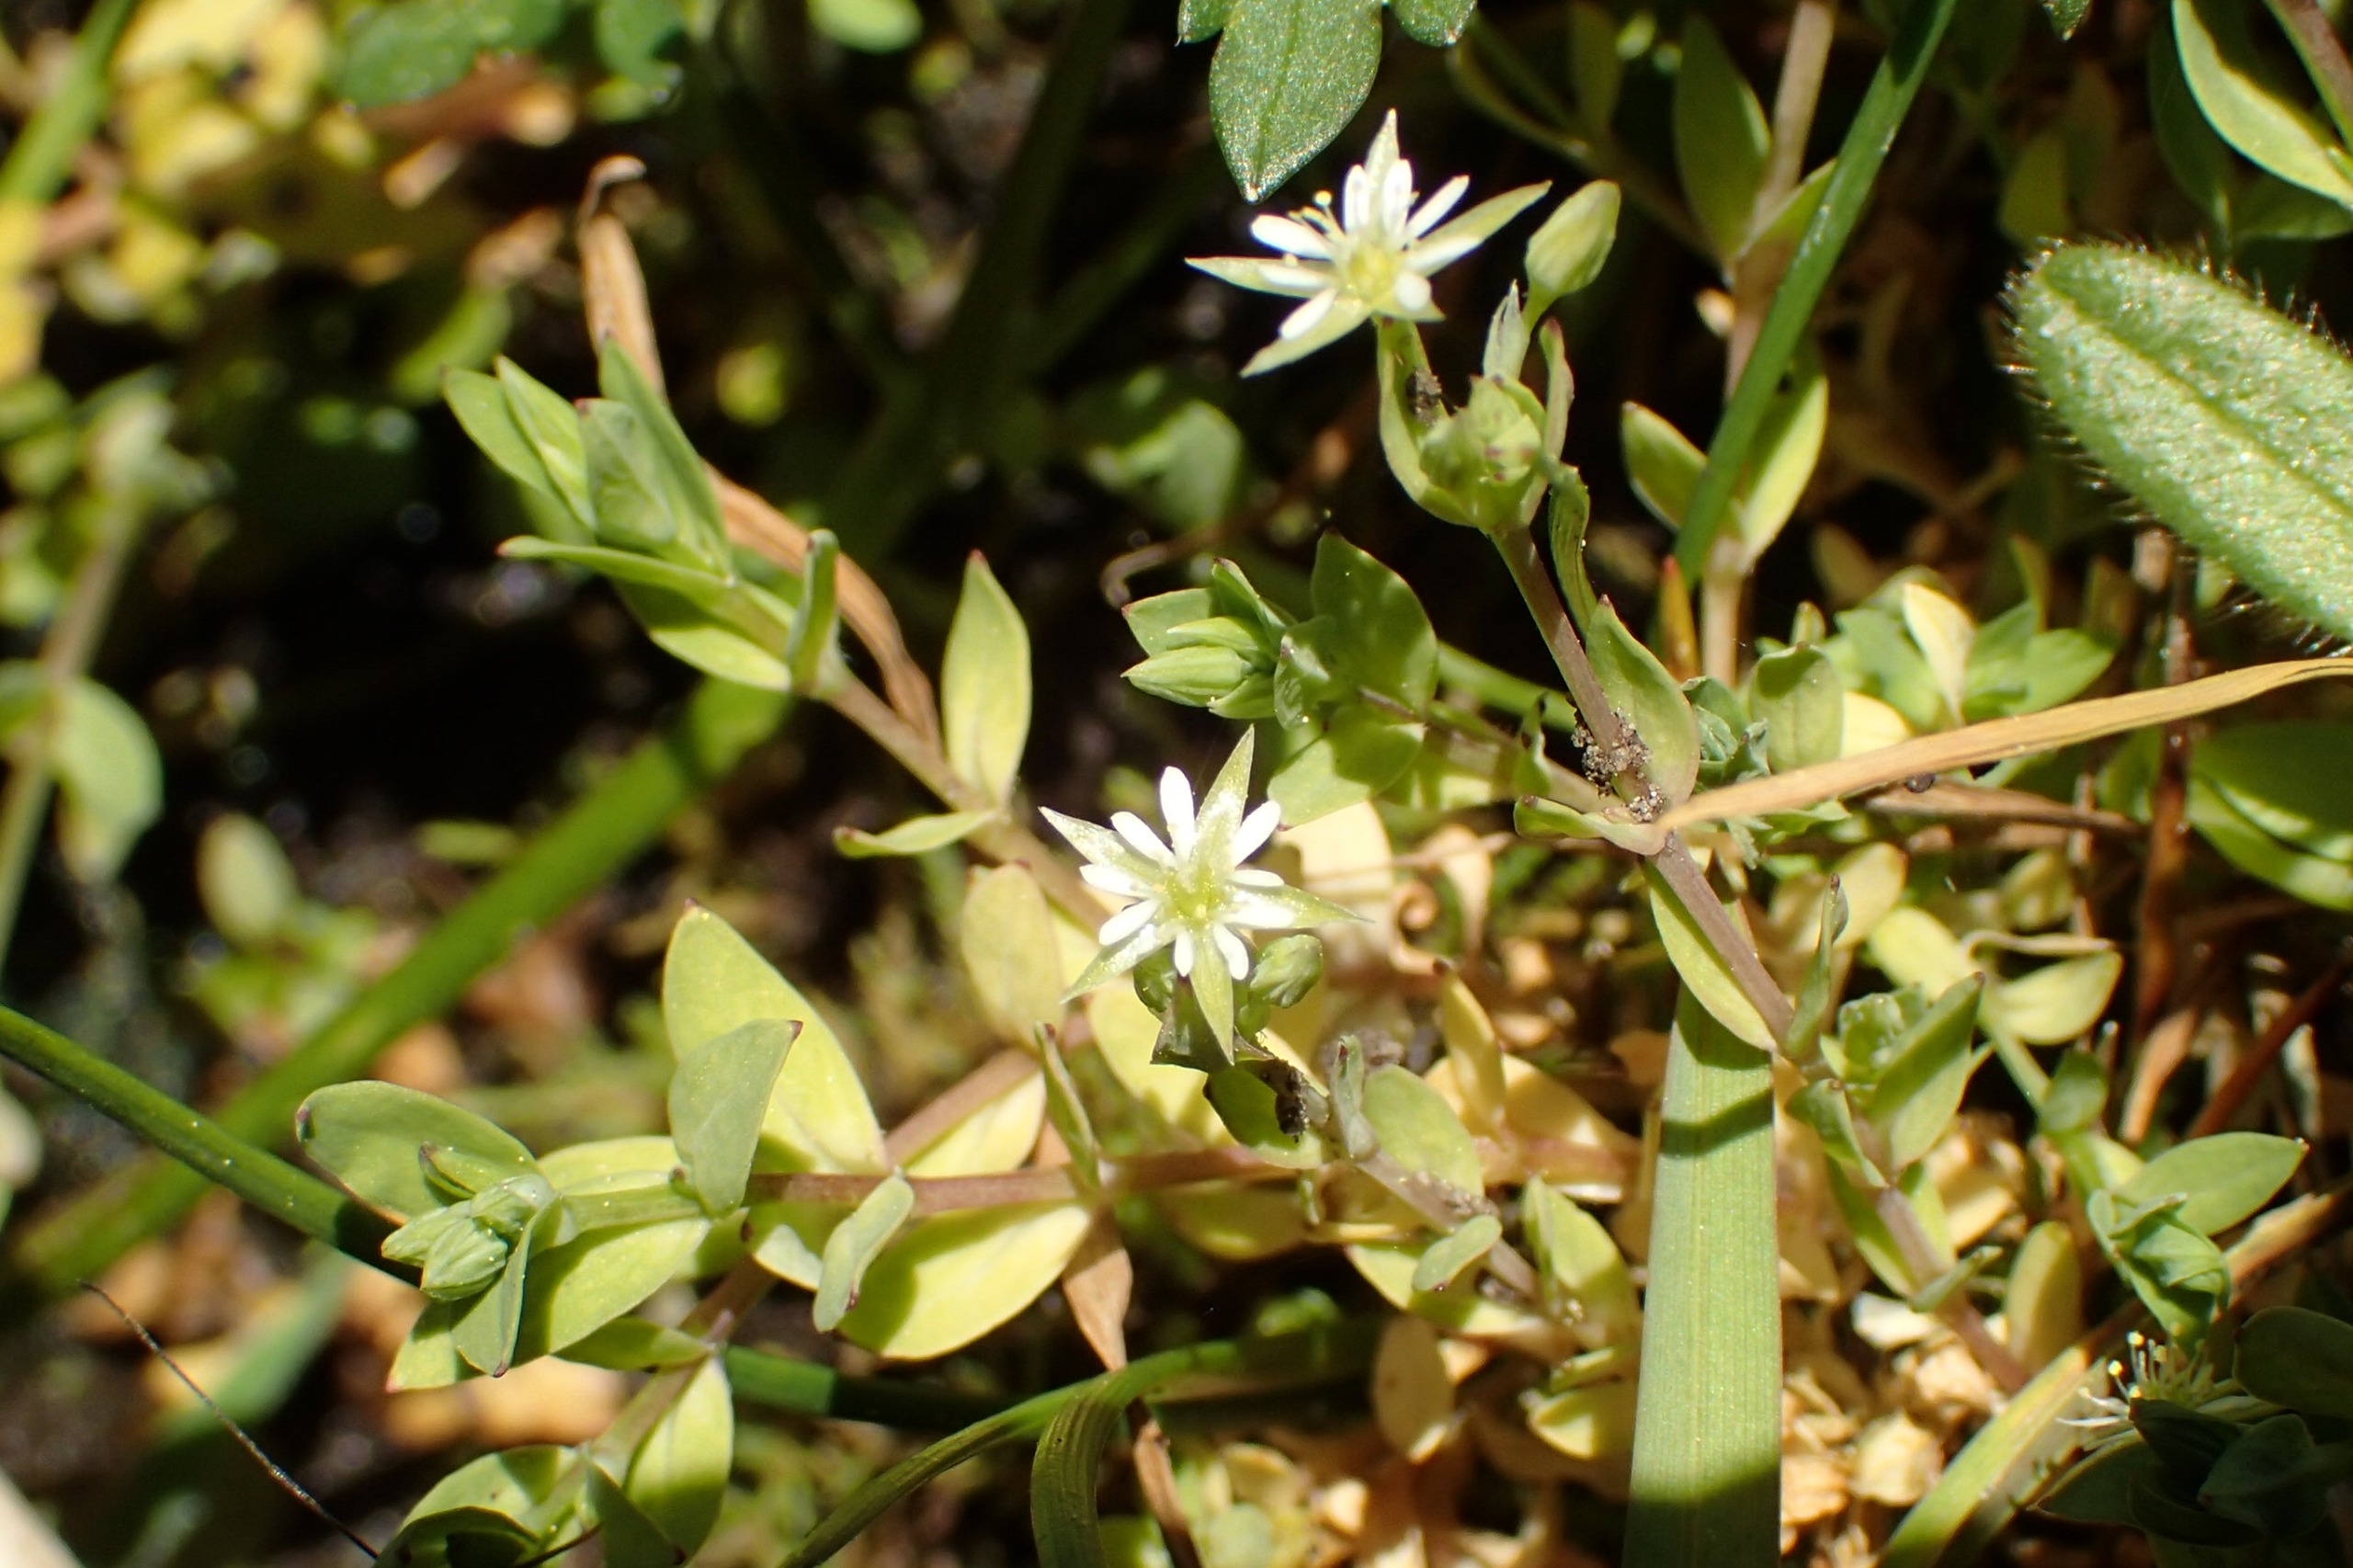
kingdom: Plantae
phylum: Tracheophyta
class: Magnoliopsida
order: Caryophyllales
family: Caryophyllaceae
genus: Stellaria
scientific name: Stellaria alsine
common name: Sump-fladstjerne
